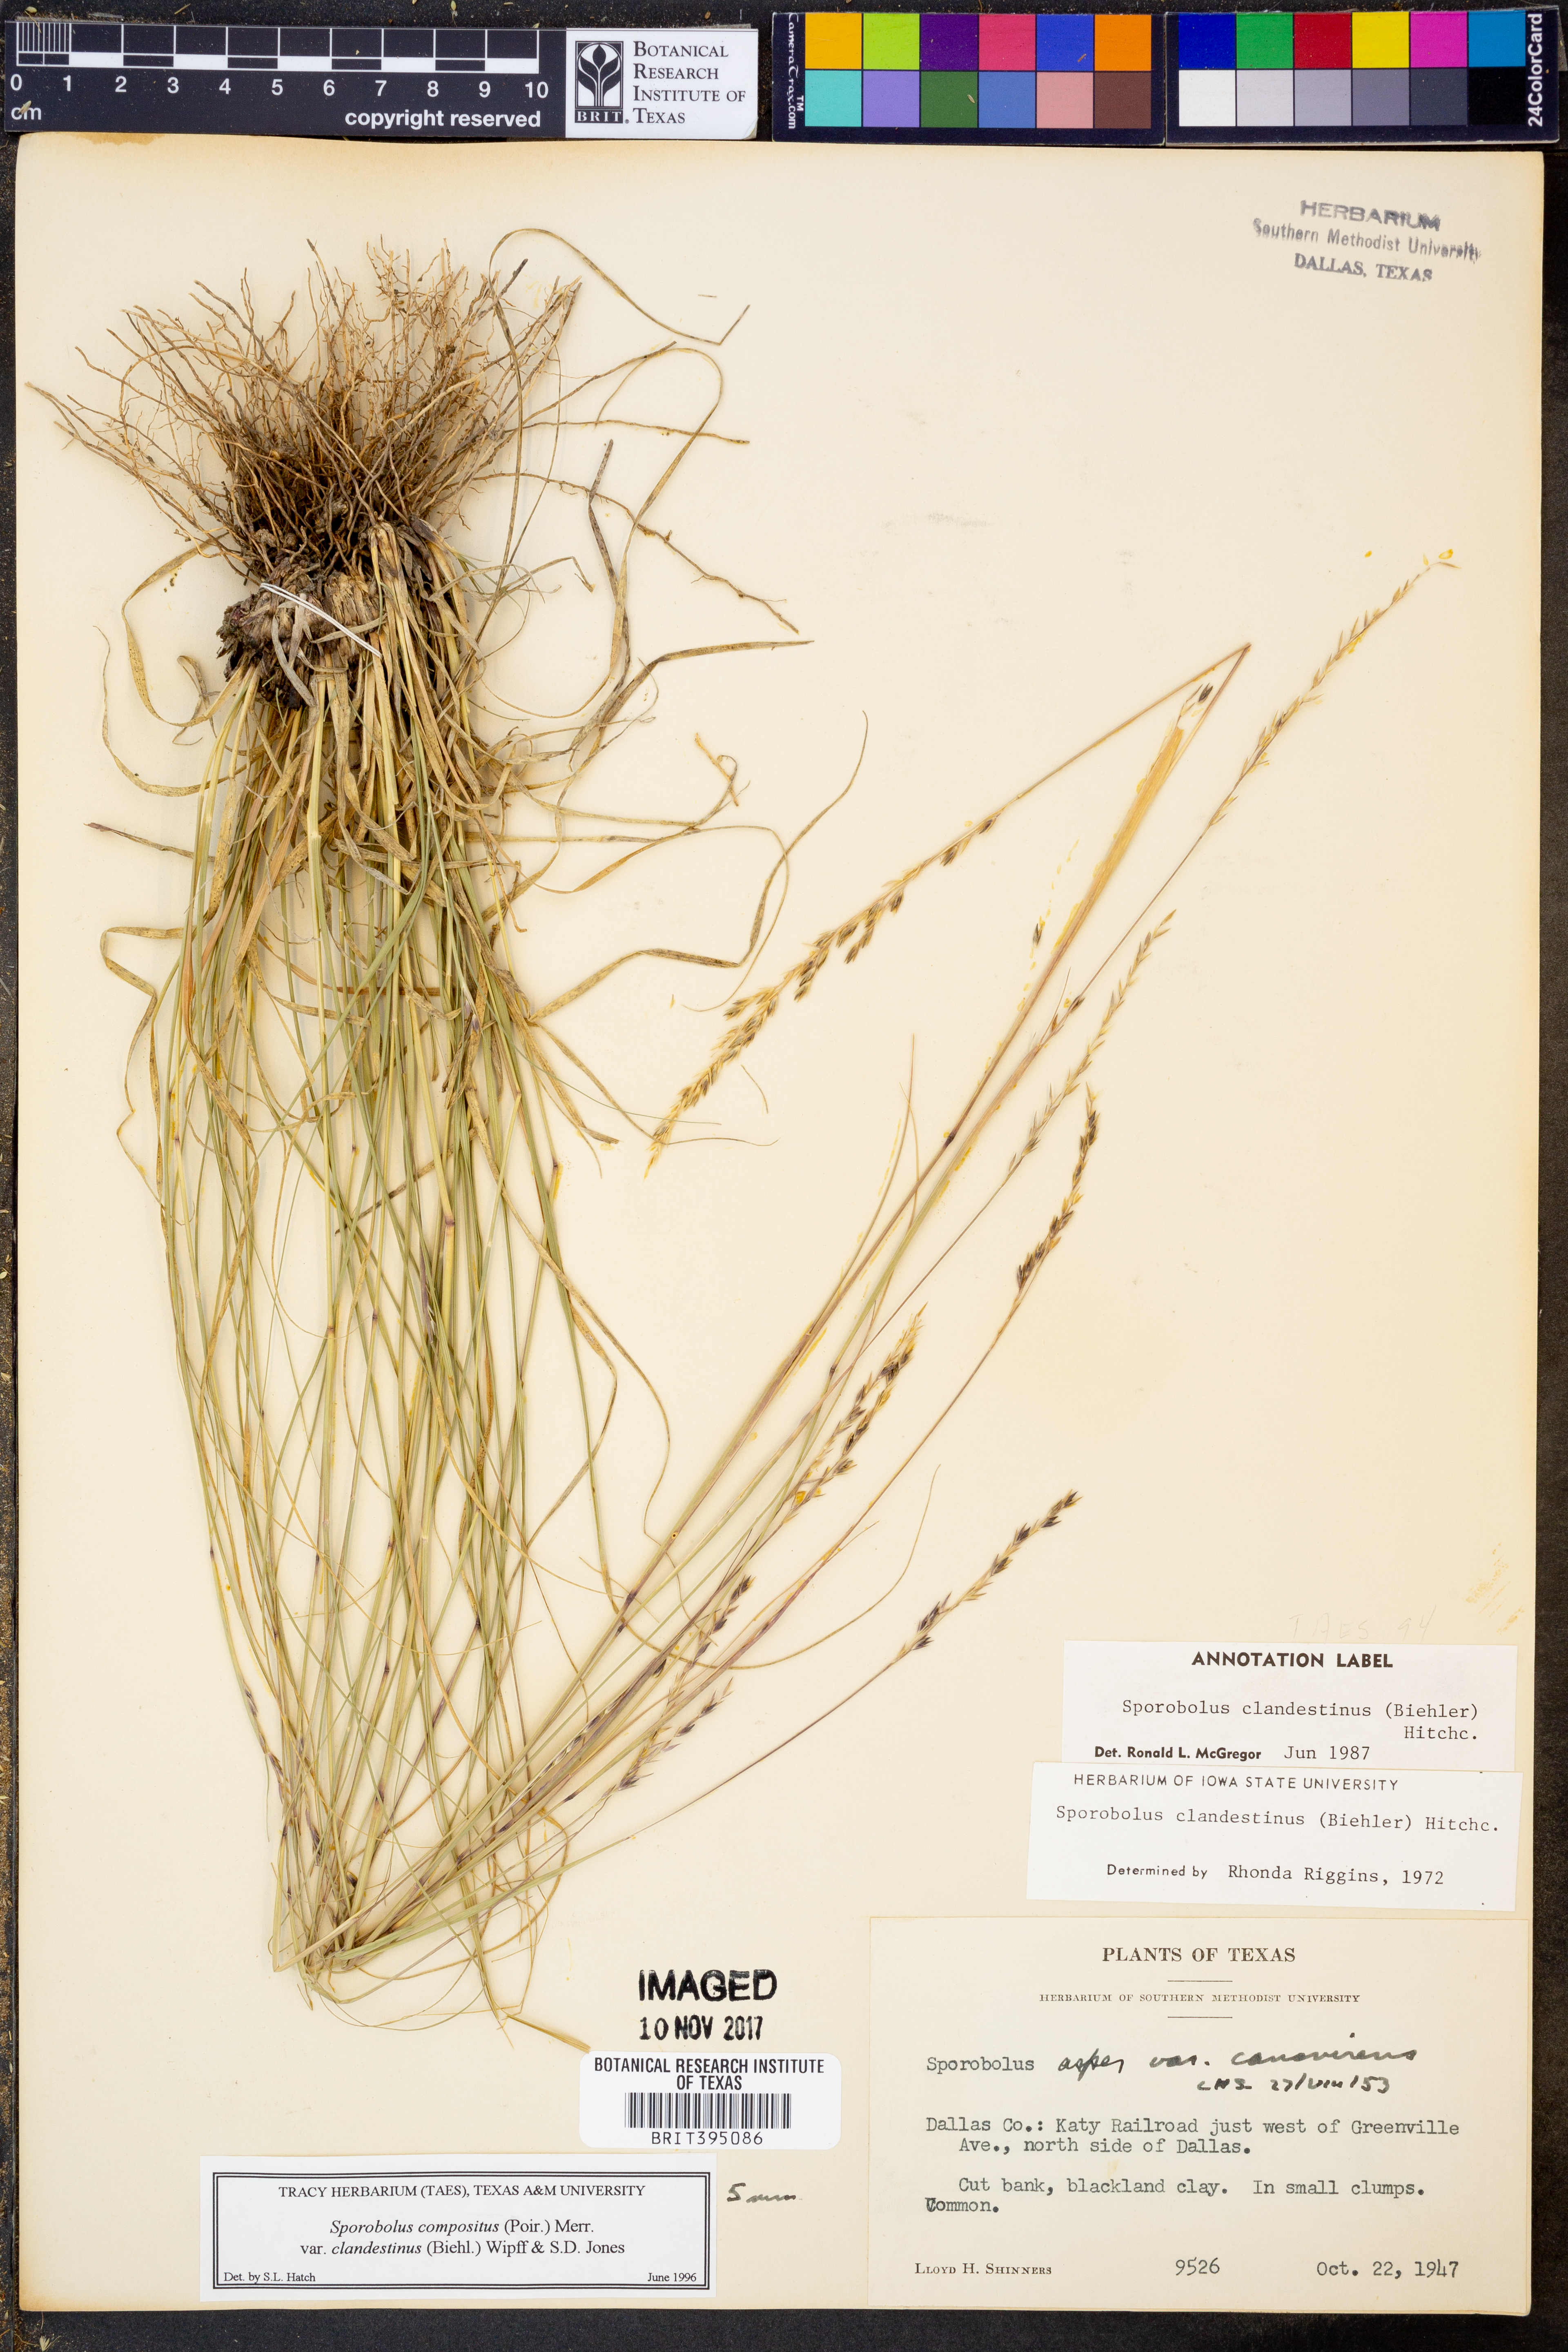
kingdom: Plantae
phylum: Tracheophyta
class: Liliopsida
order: Poales
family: Poaceae
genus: Sporobolus
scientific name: Sporobolus clandestinus
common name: Hidden dropseed
